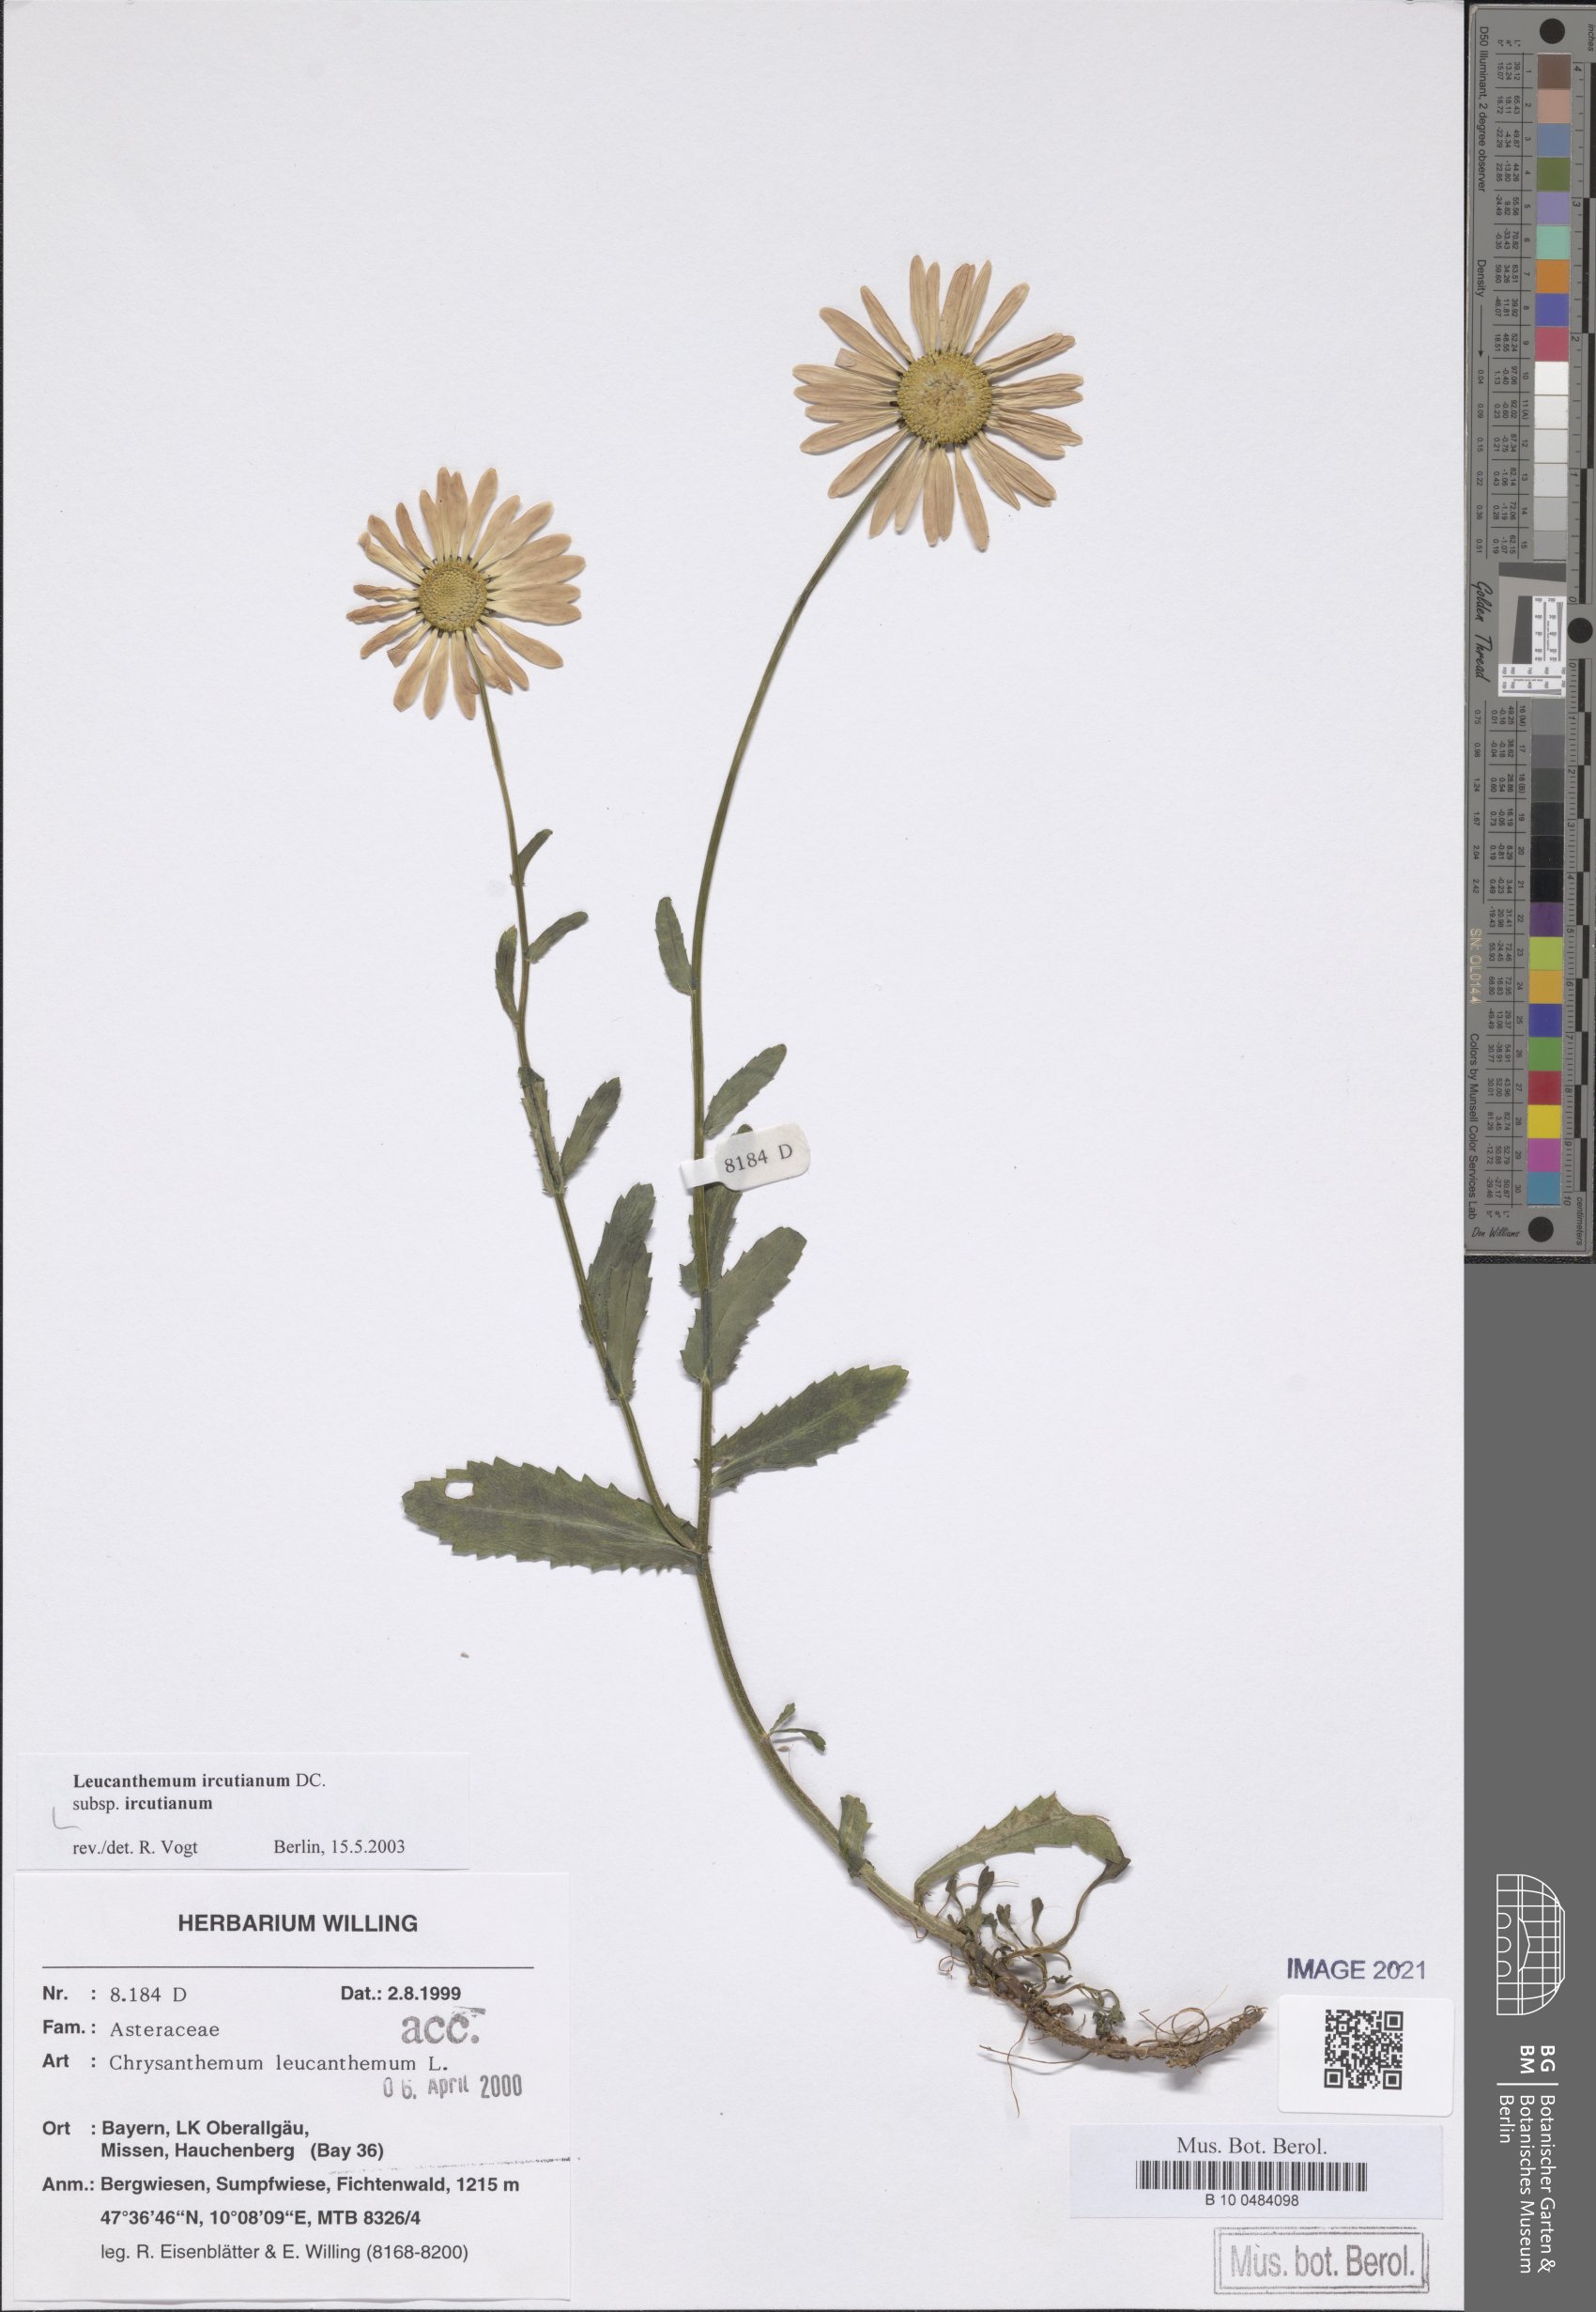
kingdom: Plantae
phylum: Tracheophyta
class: Magnoliopsida
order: Asterales
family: Asteraceae
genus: Leucanthemum
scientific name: Leucanthemum ircutianum
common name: Daisy
